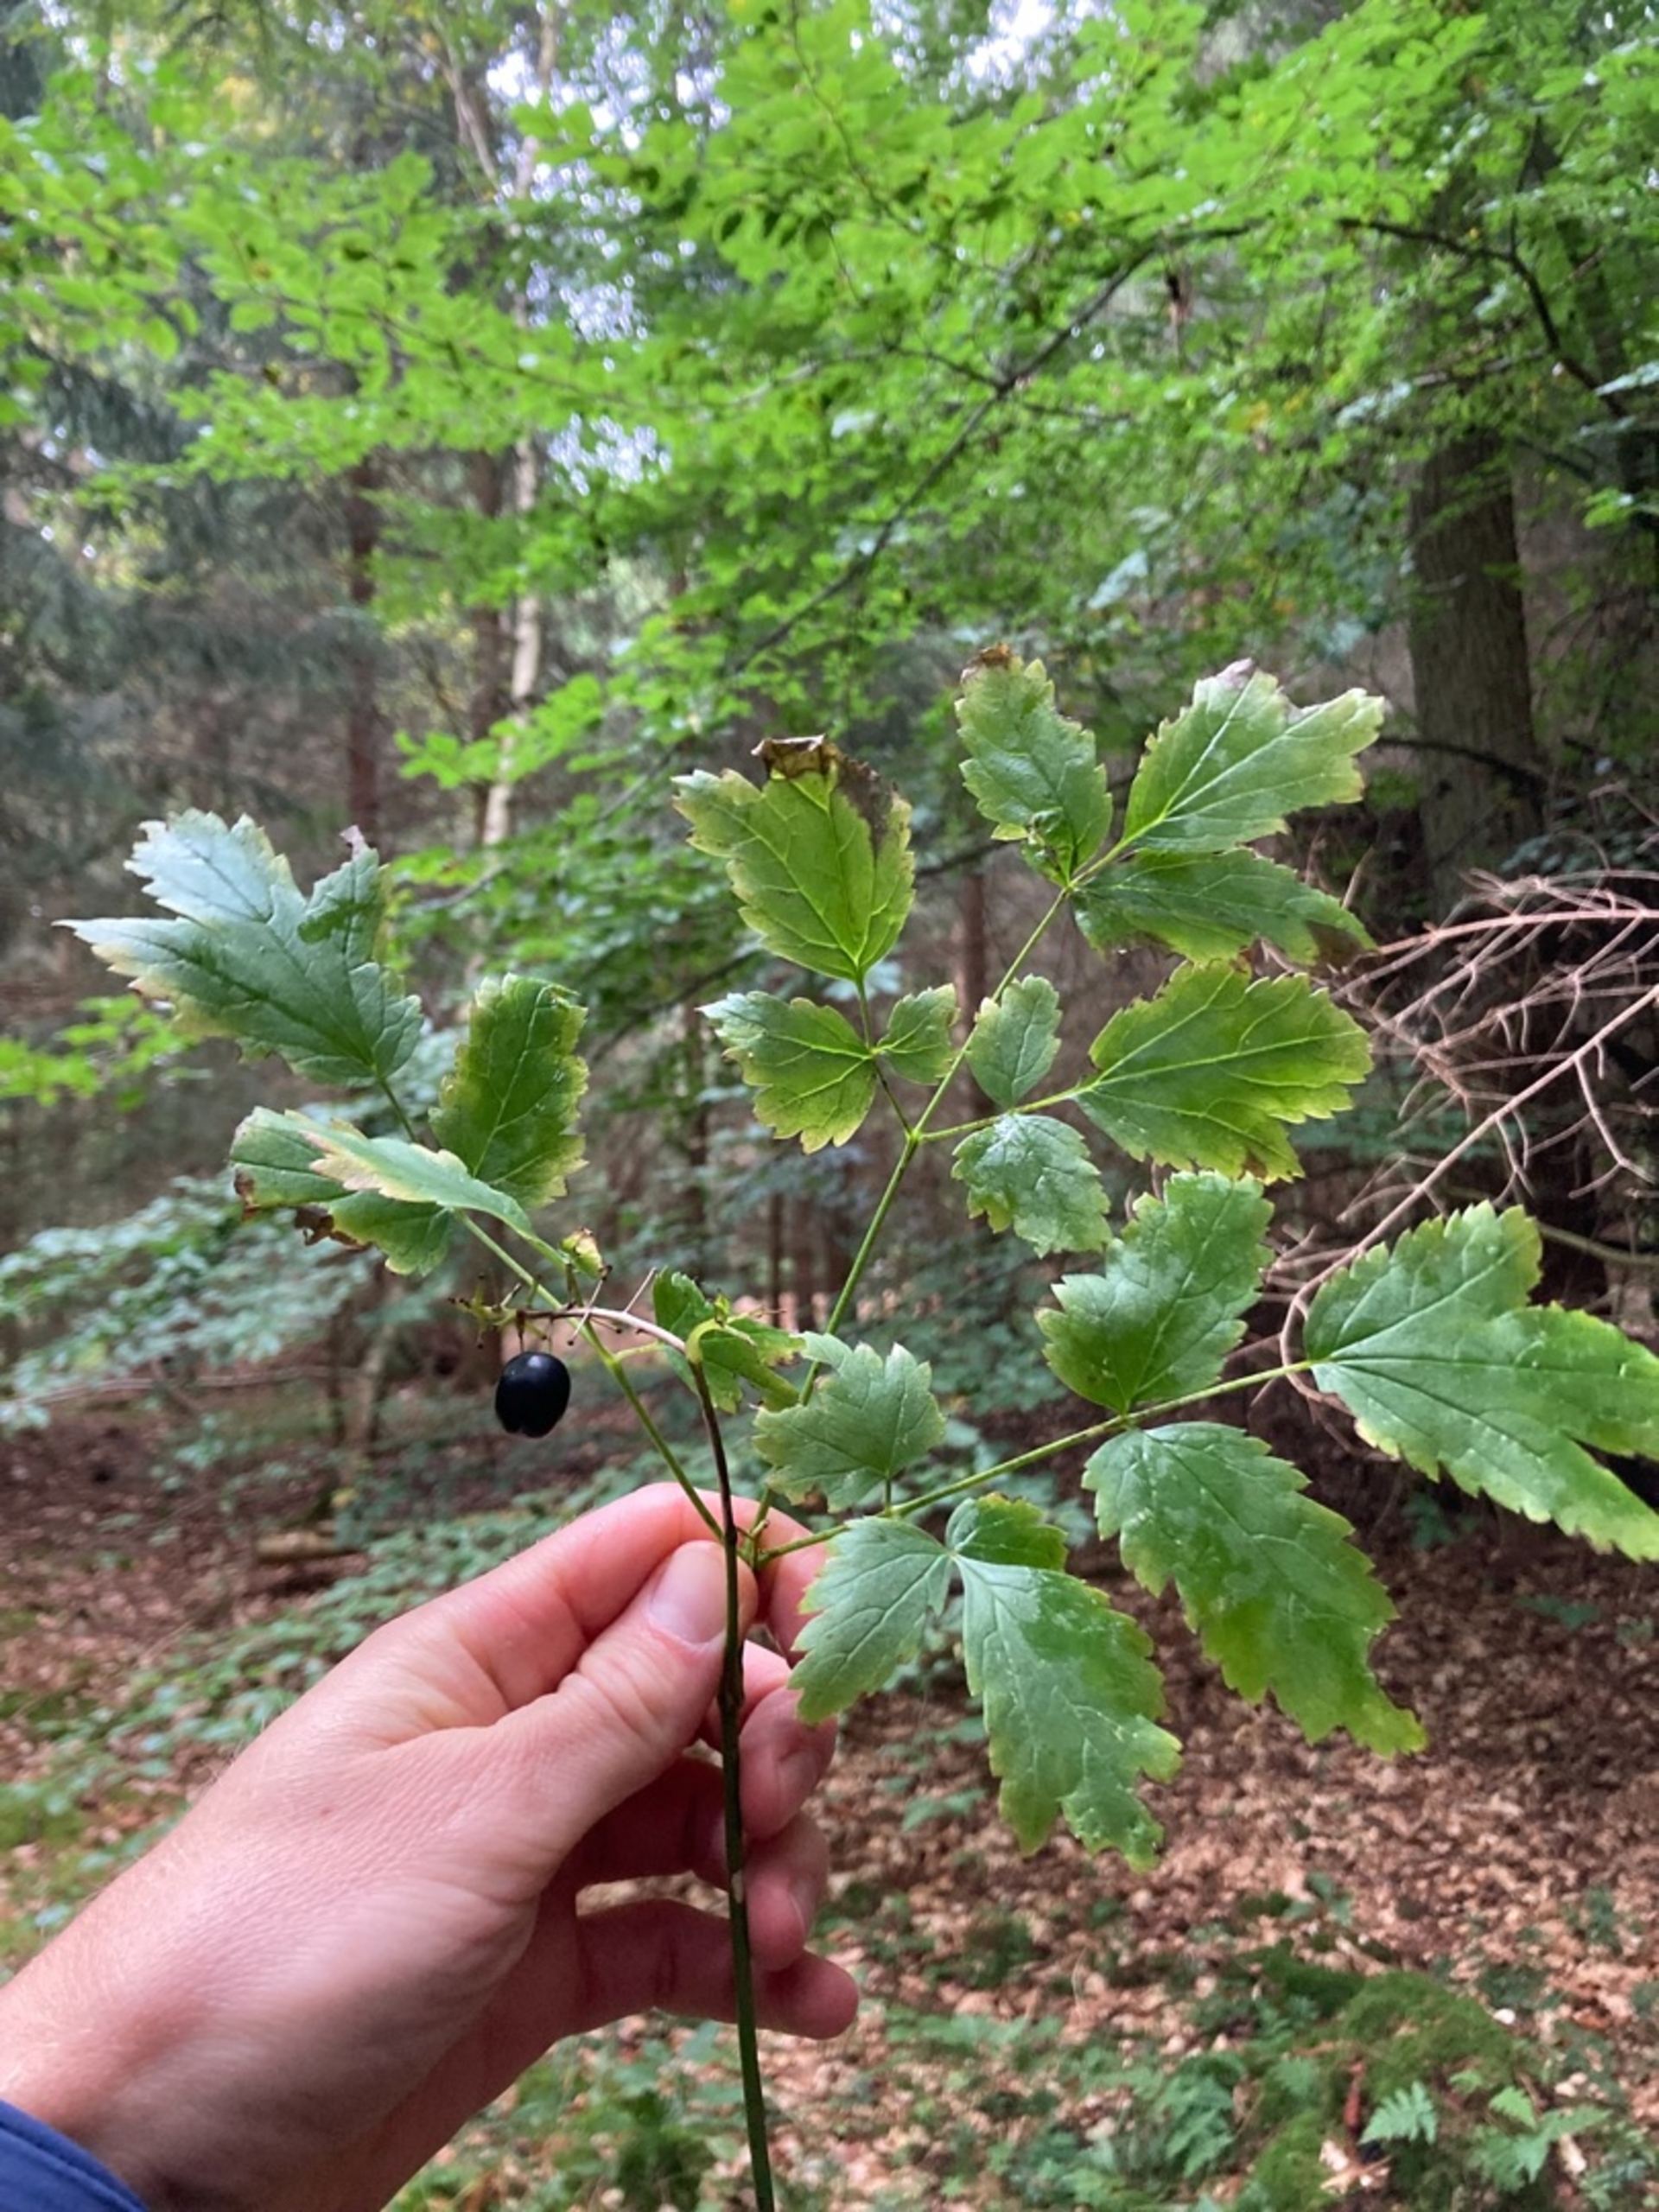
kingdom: Plantae
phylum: Tracheophyta
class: Magnoliopsida
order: Ranunculales
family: Ranunculaceae
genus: Actaea
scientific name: Actaea spicata
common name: Druemunke
